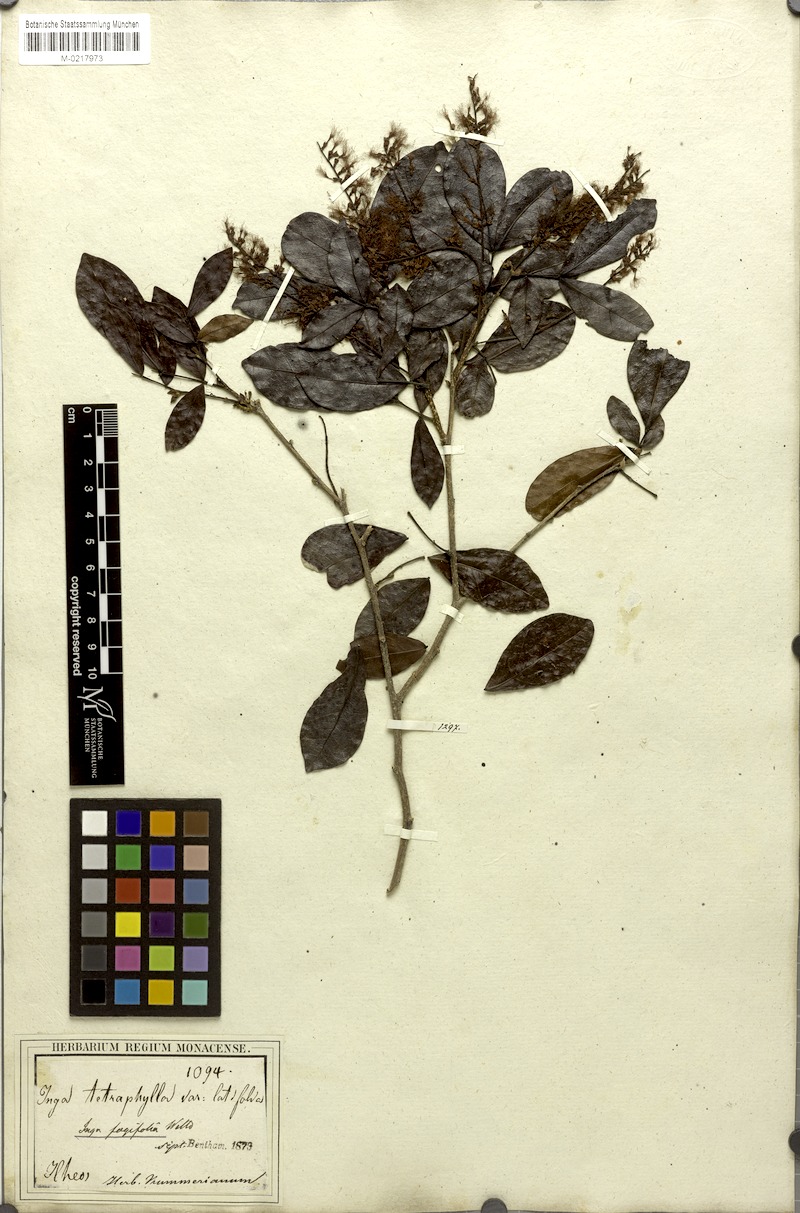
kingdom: Plantae
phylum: Tracheophyta
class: Magnoliopsida
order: Fabales
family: Fabaceae
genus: Inga
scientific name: Inga laurina
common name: Red wood
